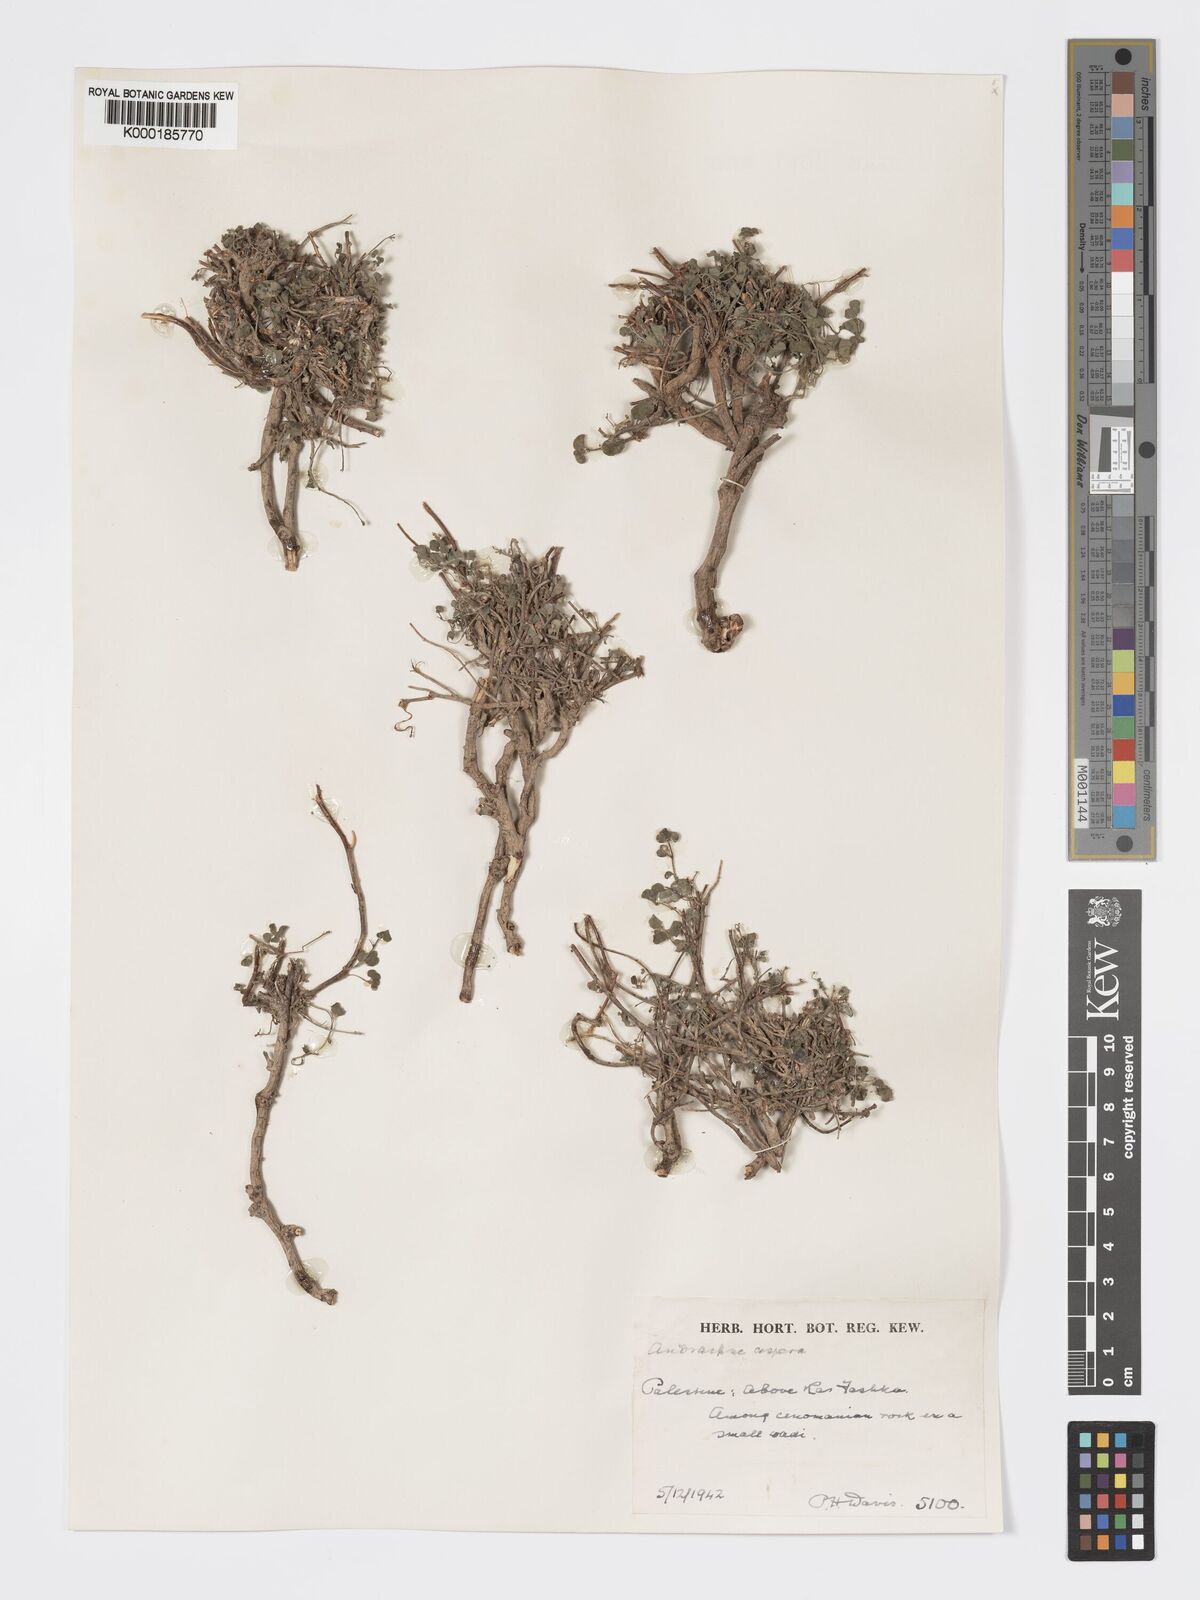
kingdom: Plantae
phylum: Tracheophyta
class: Magnoliopsida
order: Malpighiales
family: Phyllanthaceae
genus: Andrachne
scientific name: Andrachne aspera
